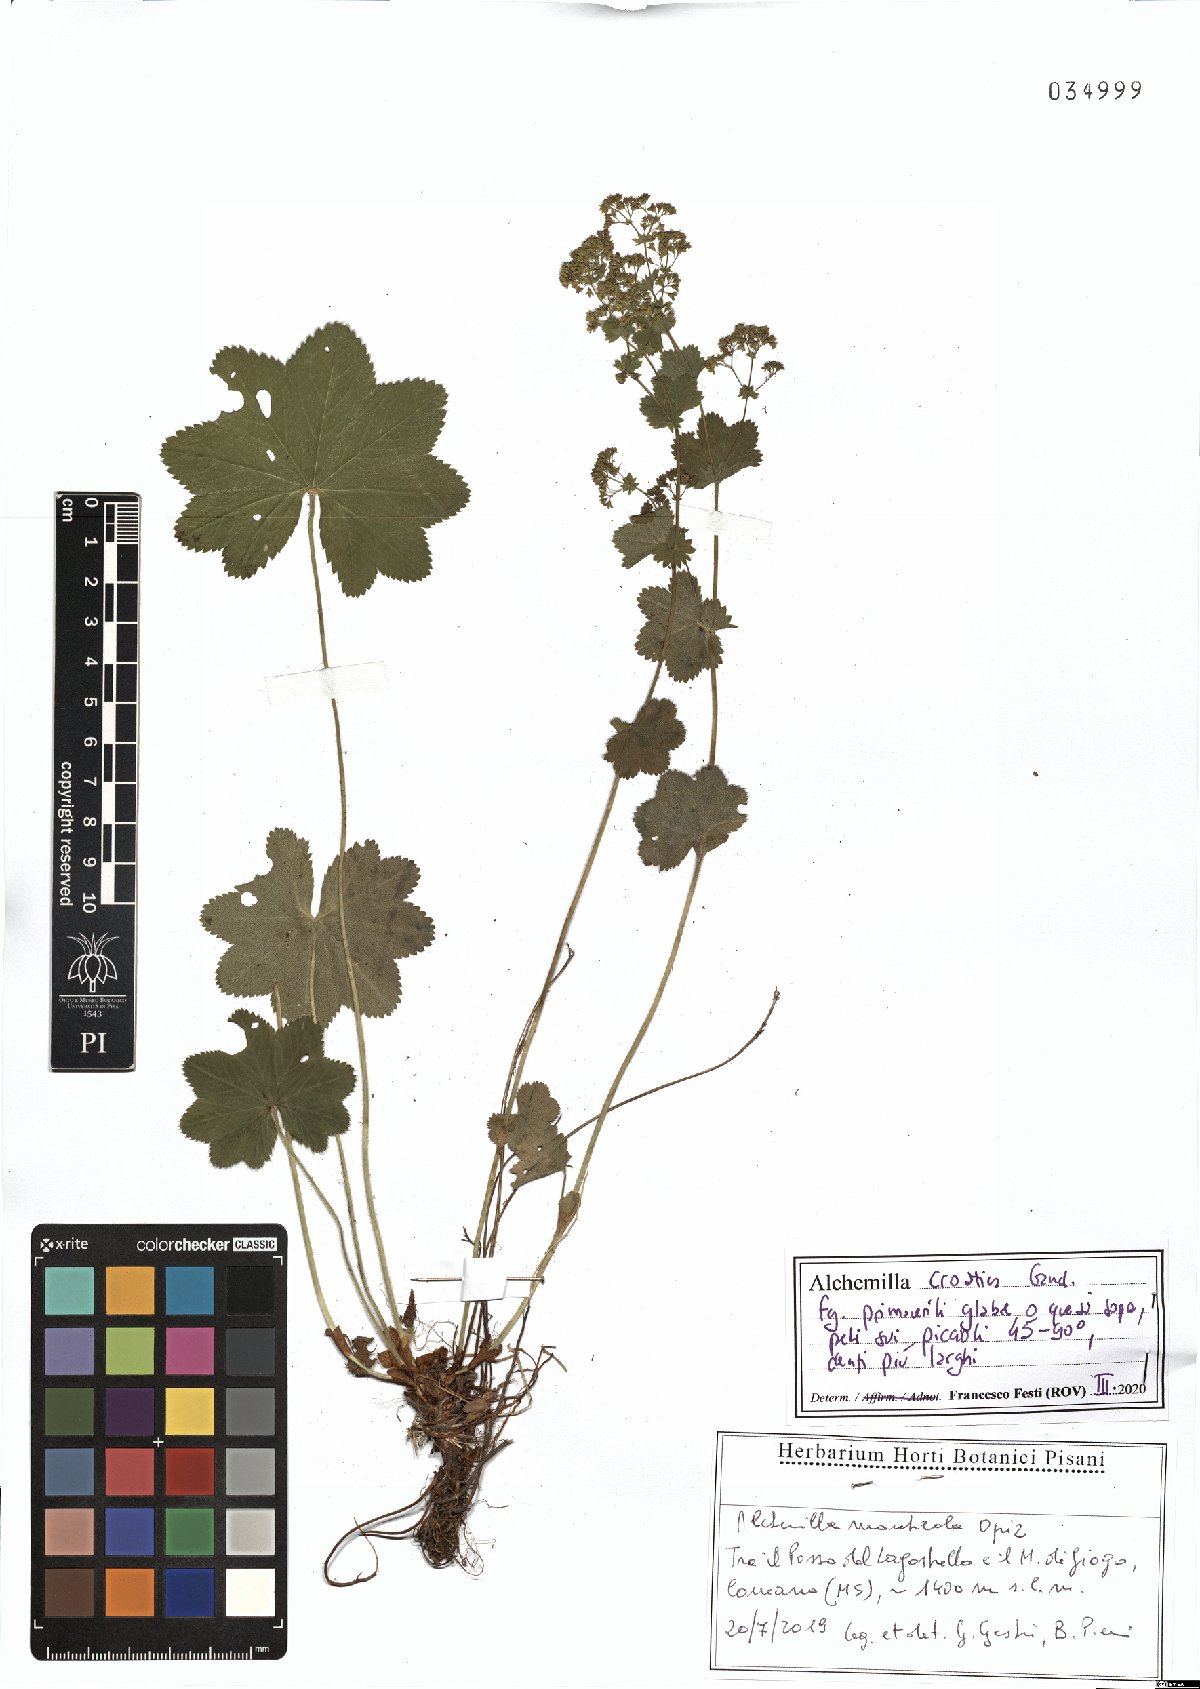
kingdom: Plantae
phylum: Tracheophyta
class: Magnoliopsida
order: Rosales
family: Rosaceae
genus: Alchemilla
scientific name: Alchemilla croatica
